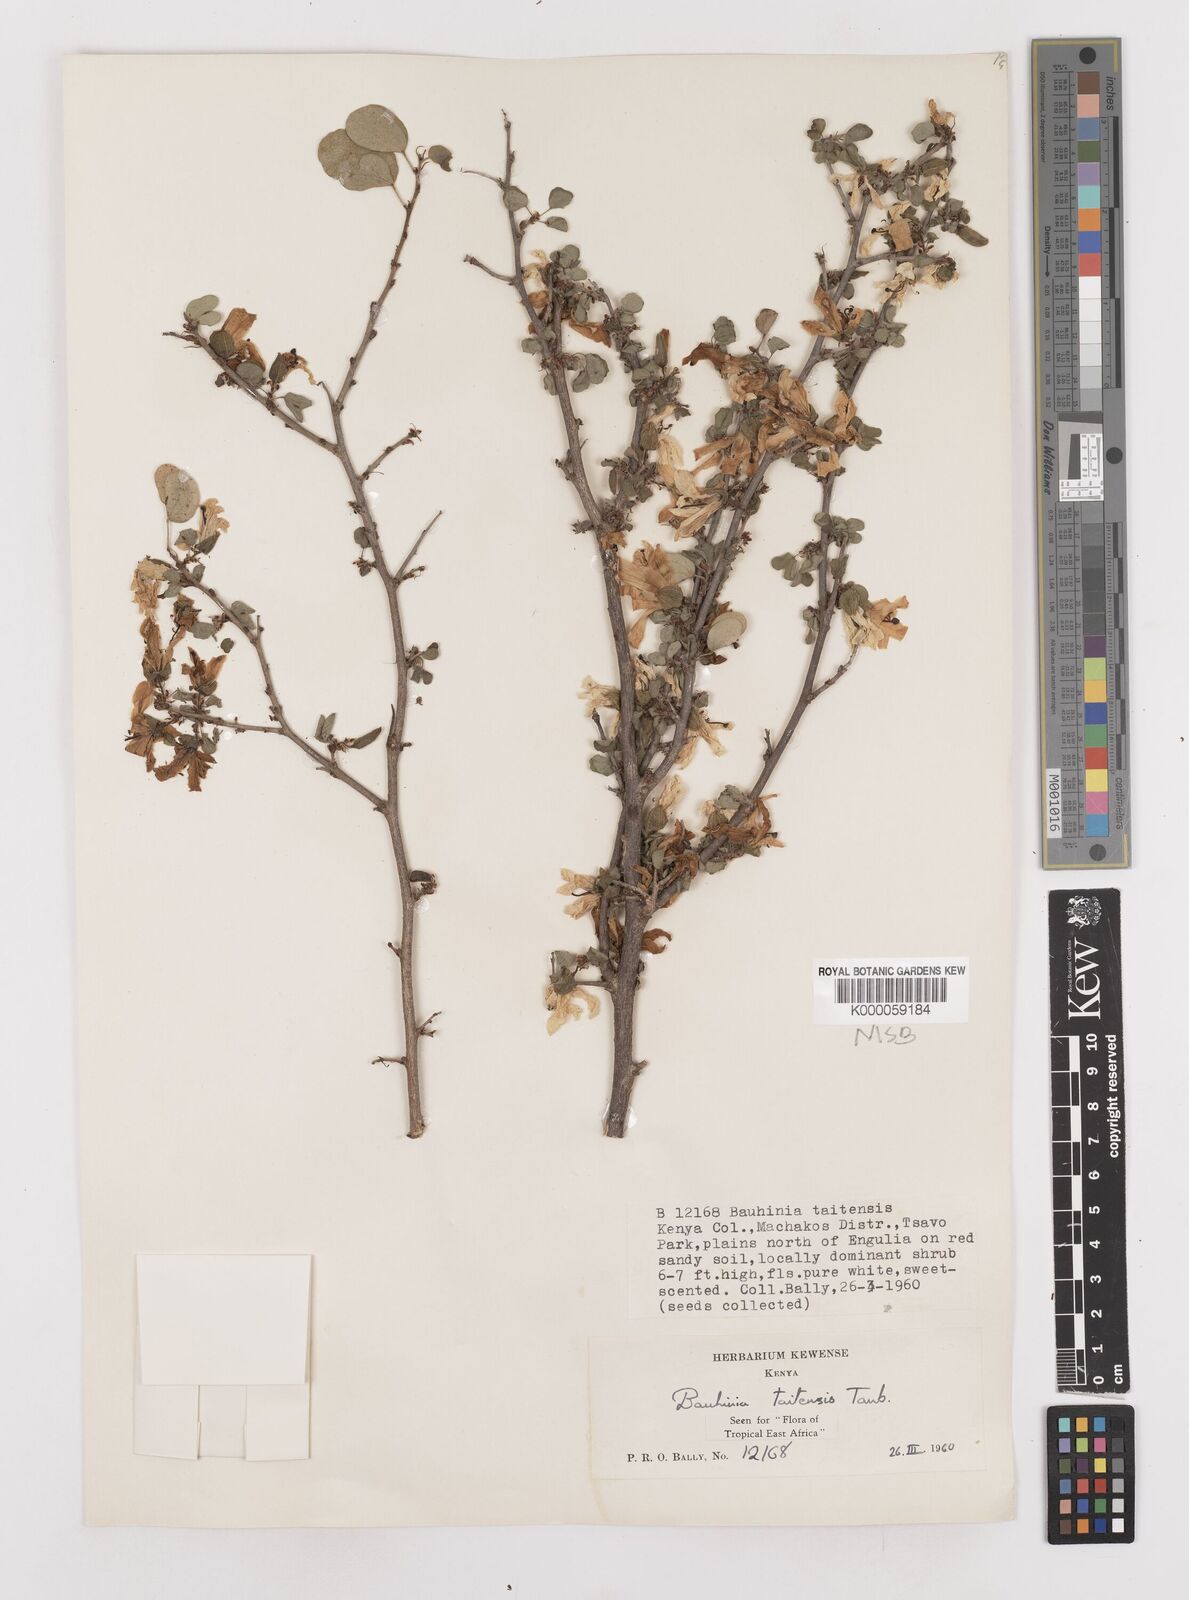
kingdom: Plantae
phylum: Tracheophyta
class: Magnoliopsida
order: Fabales
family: Fabaceae
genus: Bauhinia
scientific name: Bauhinia taitensis
